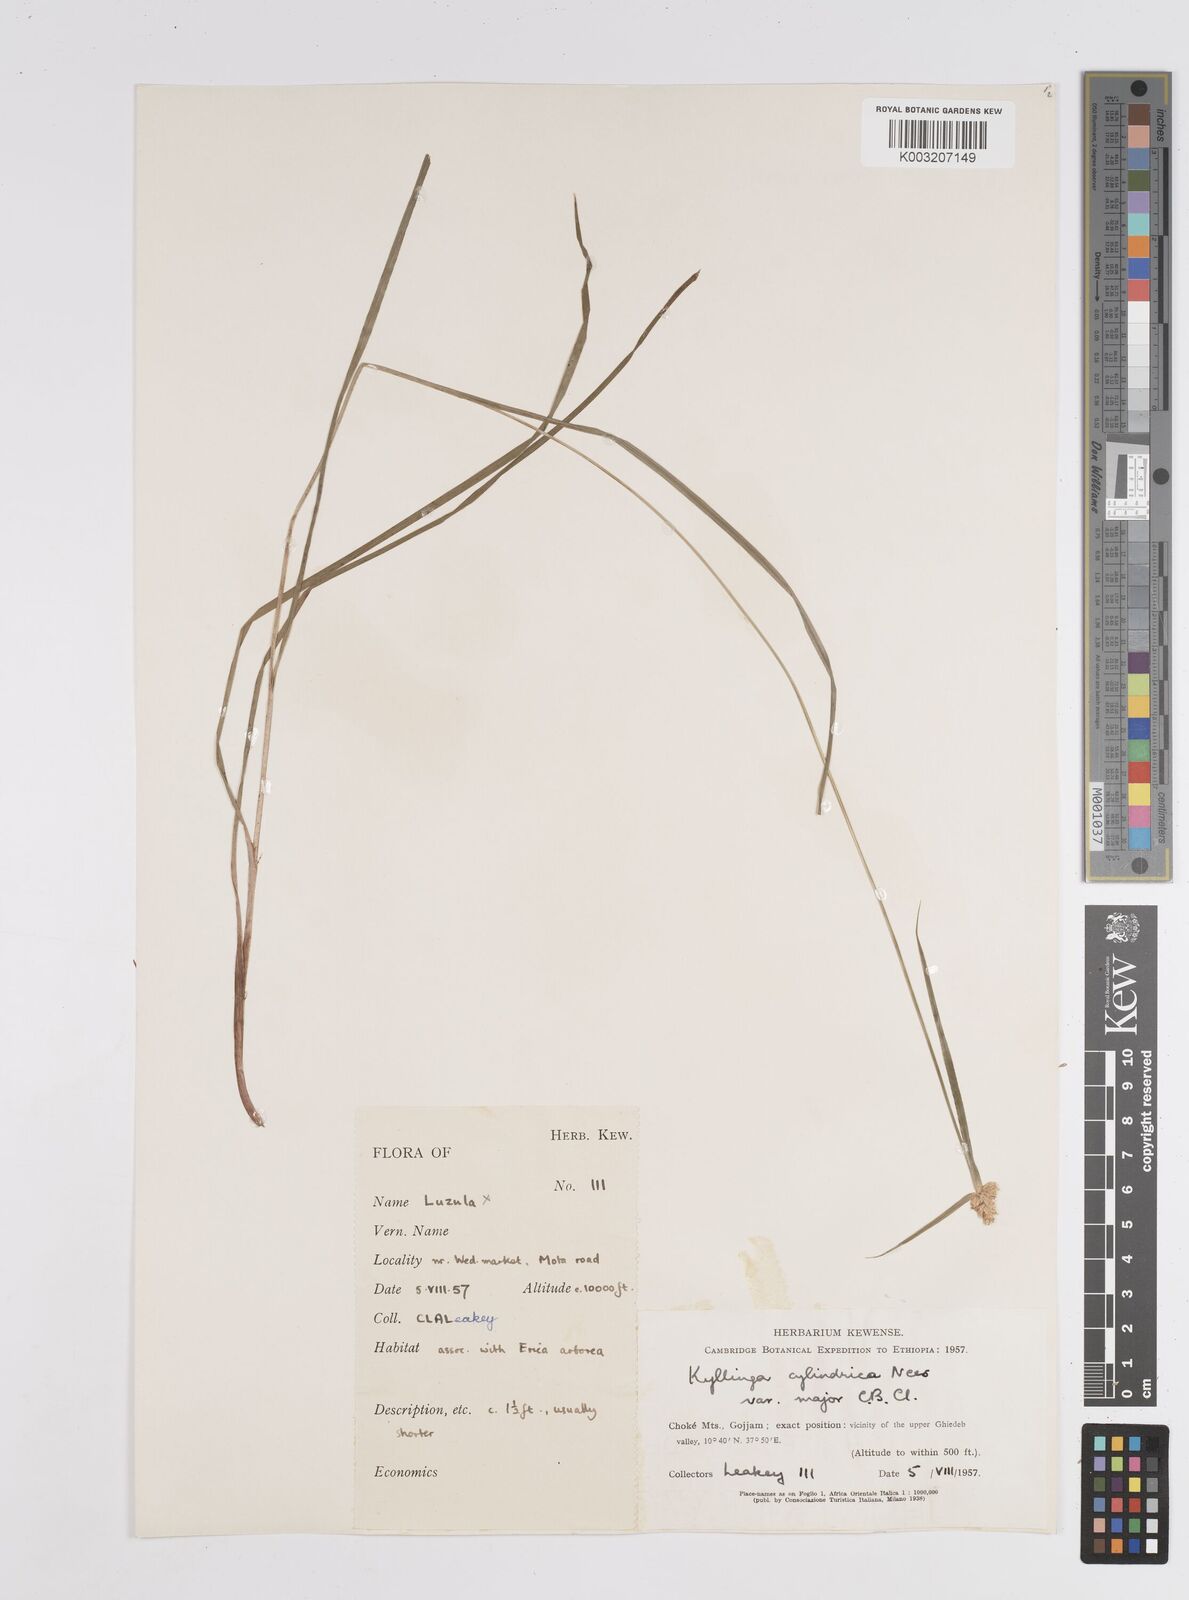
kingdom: Plantae
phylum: Tracheophyta
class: Liliopsida
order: Poales
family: Cyperaceae
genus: Cyperus
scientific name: Cyperus
